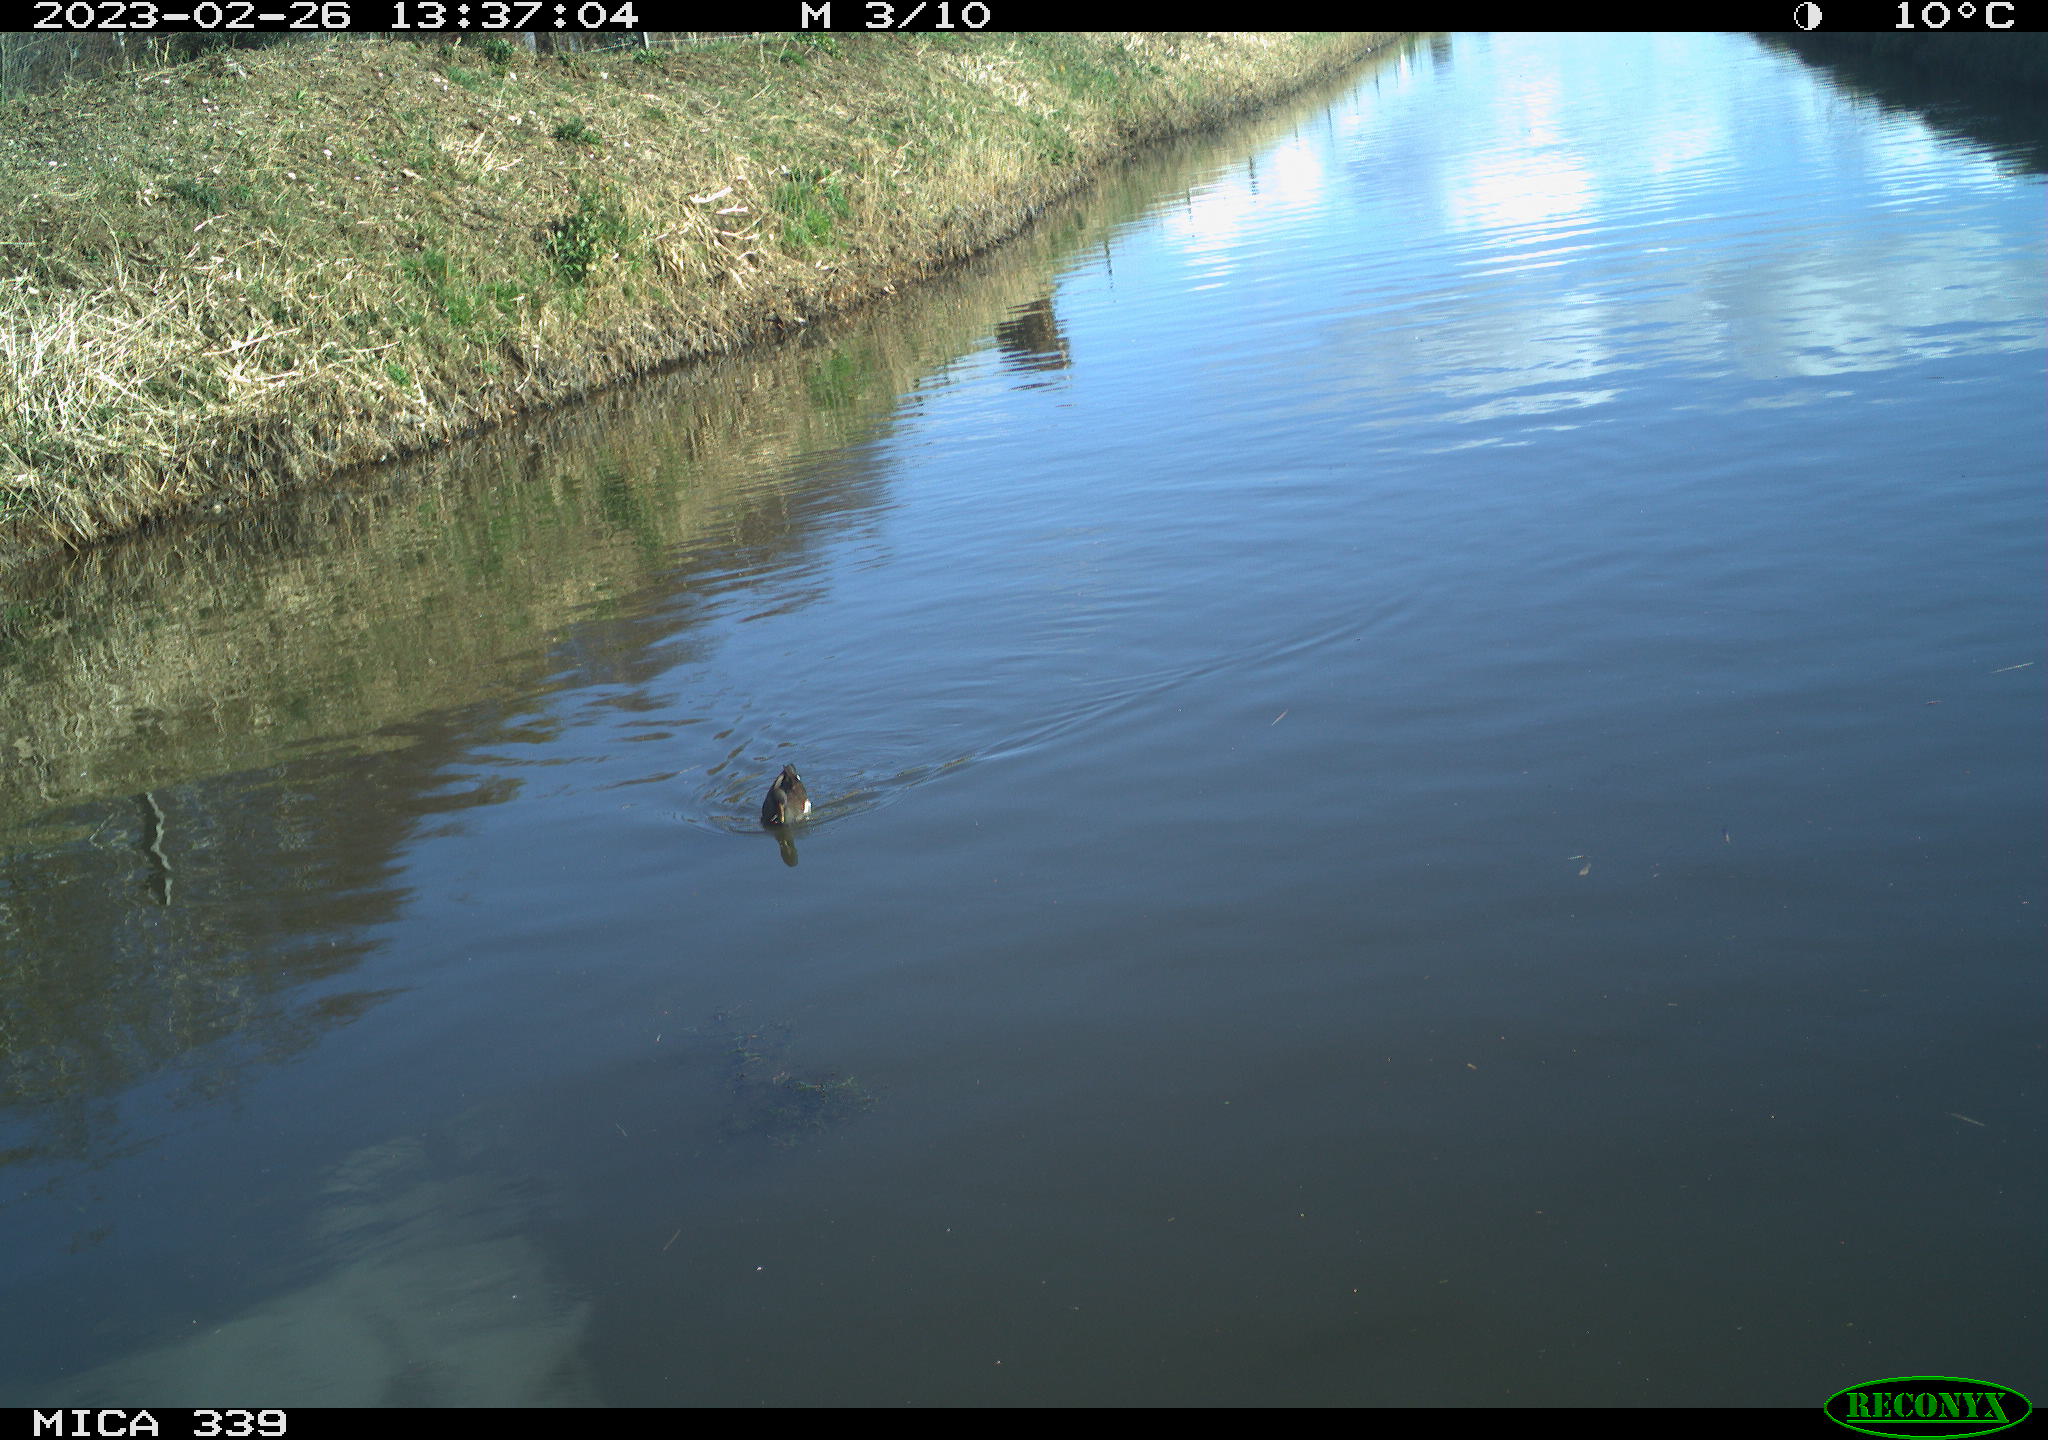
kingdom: Animalia
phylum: Chordata
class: Aves
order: Gruiformes
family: Rallidae
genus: Gallinula
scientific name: Gallinula chloropus
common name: Common moorhen
